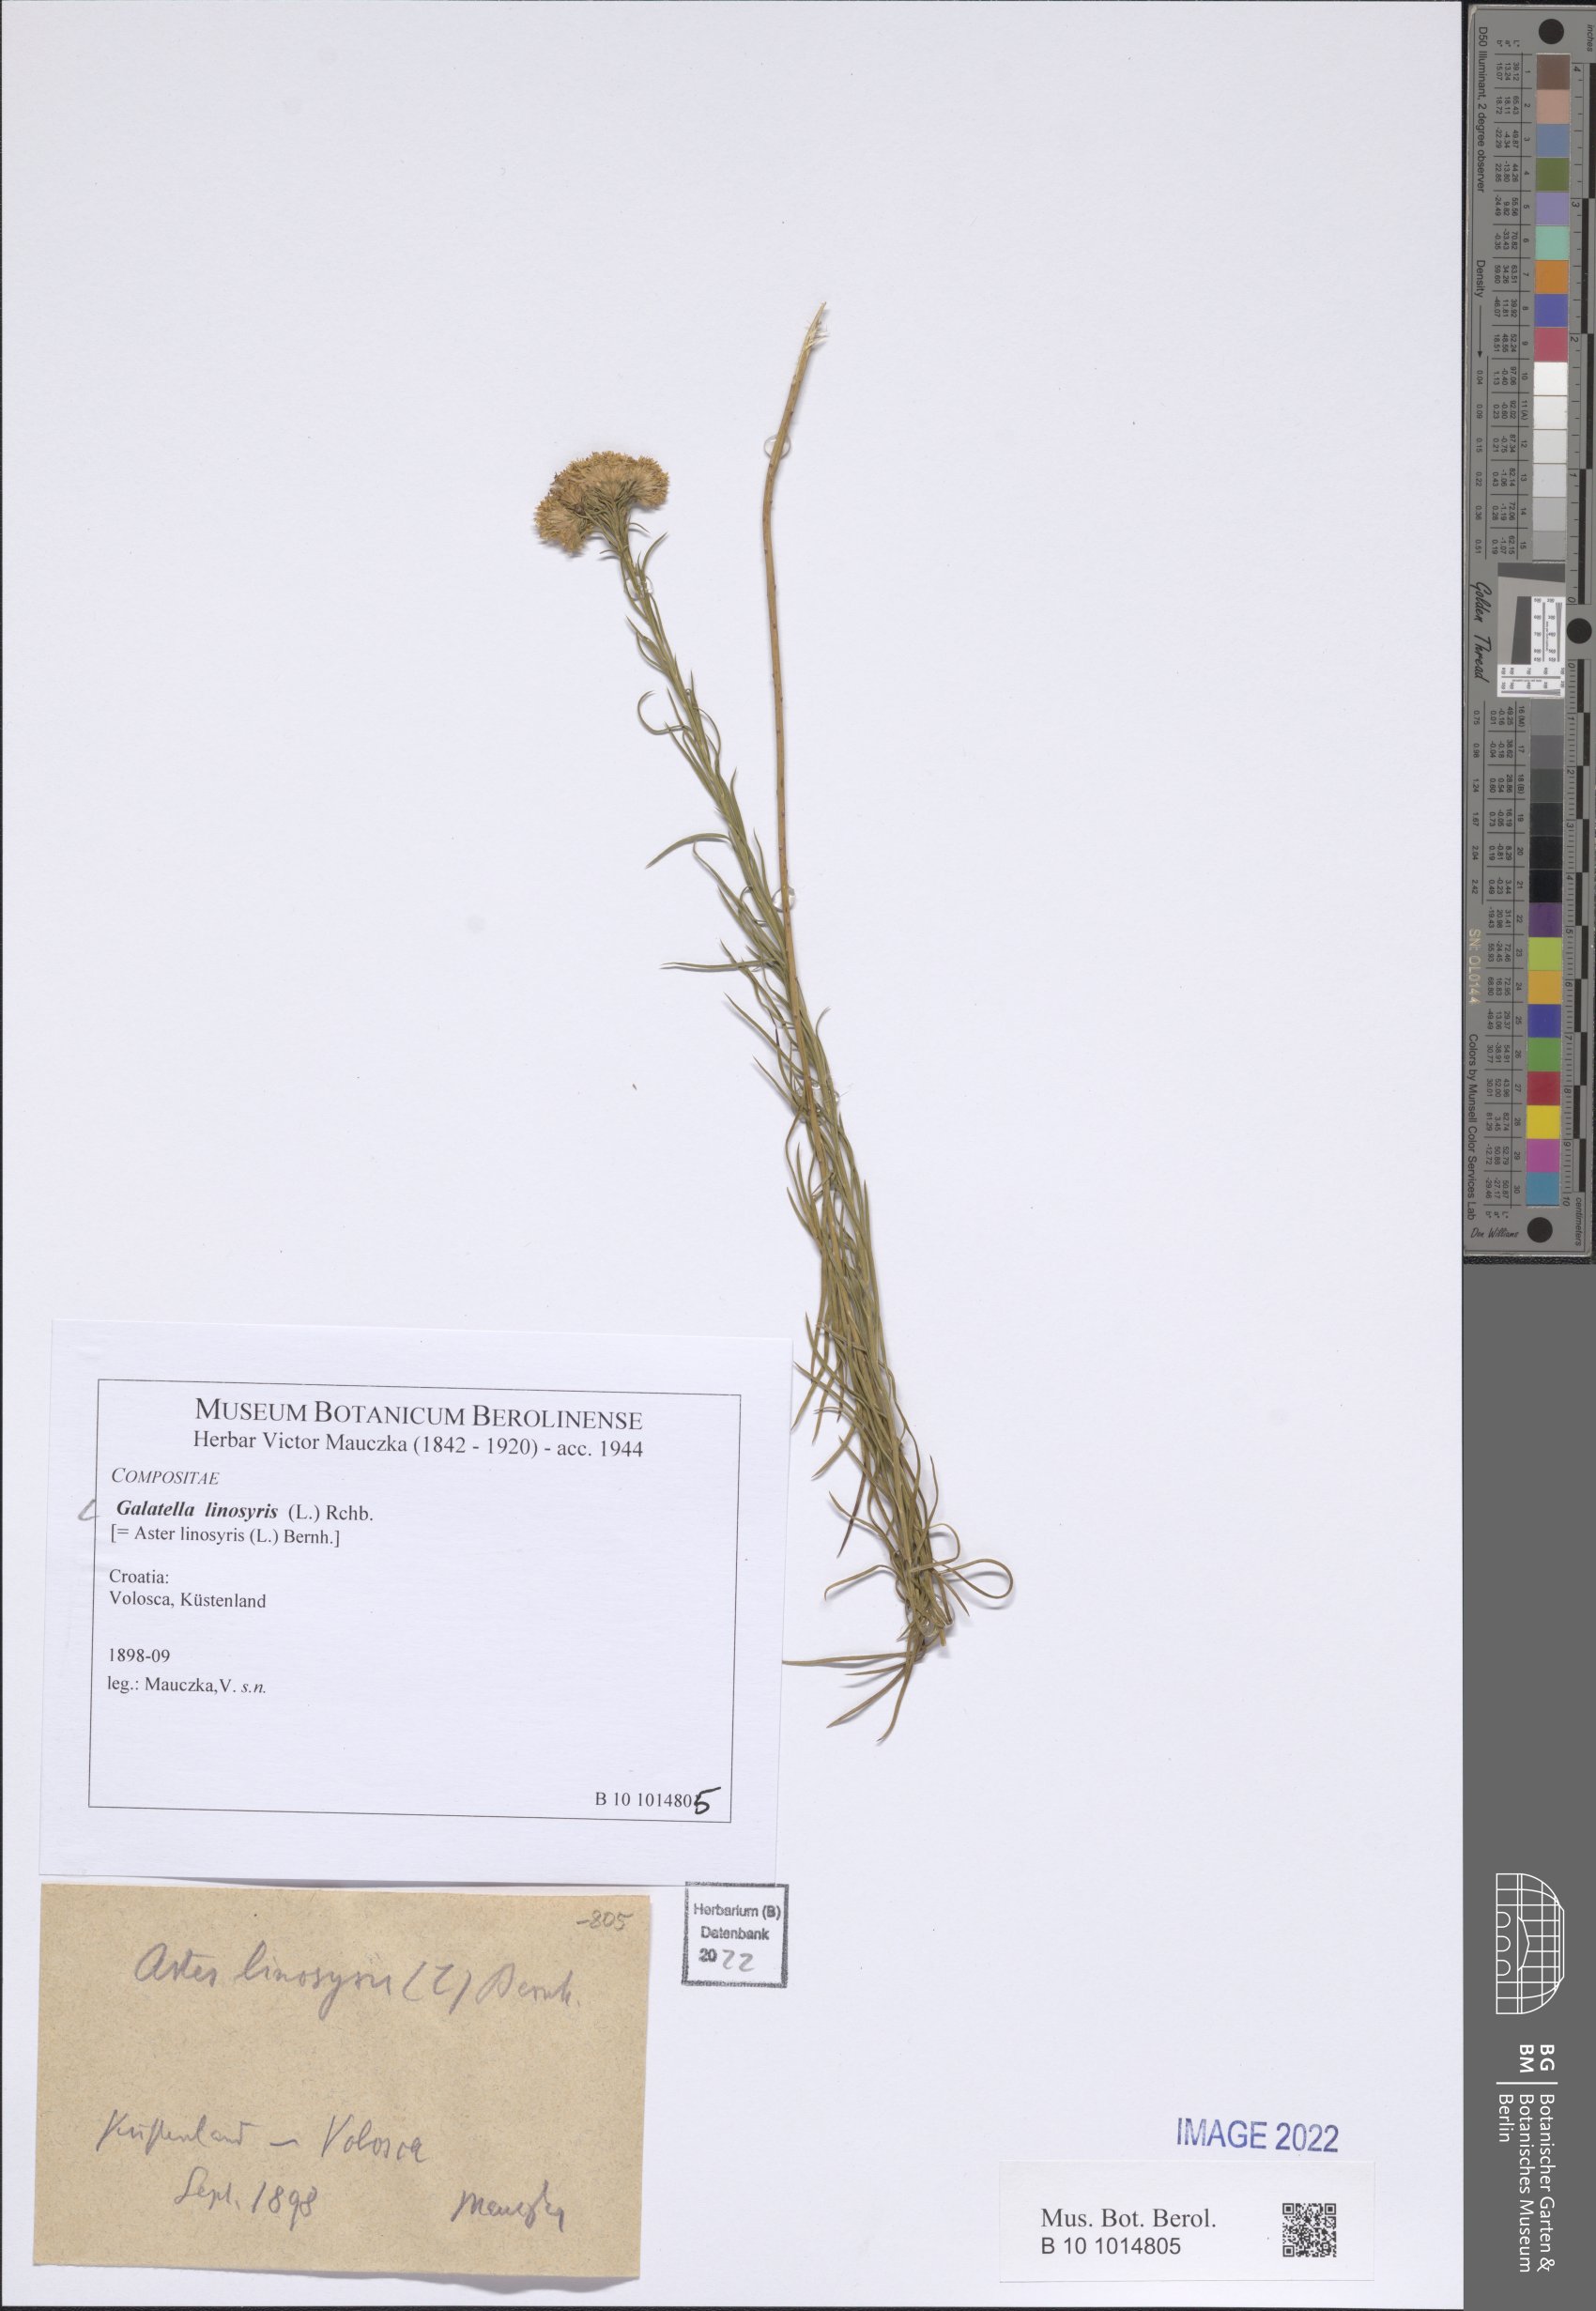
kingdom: Plantae
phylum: Tracheophyta
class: Magnoliopsida
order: Asterales
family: Asteraceae
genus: Galatella
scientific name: Galatella linosyris
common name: Goldilocks aster
